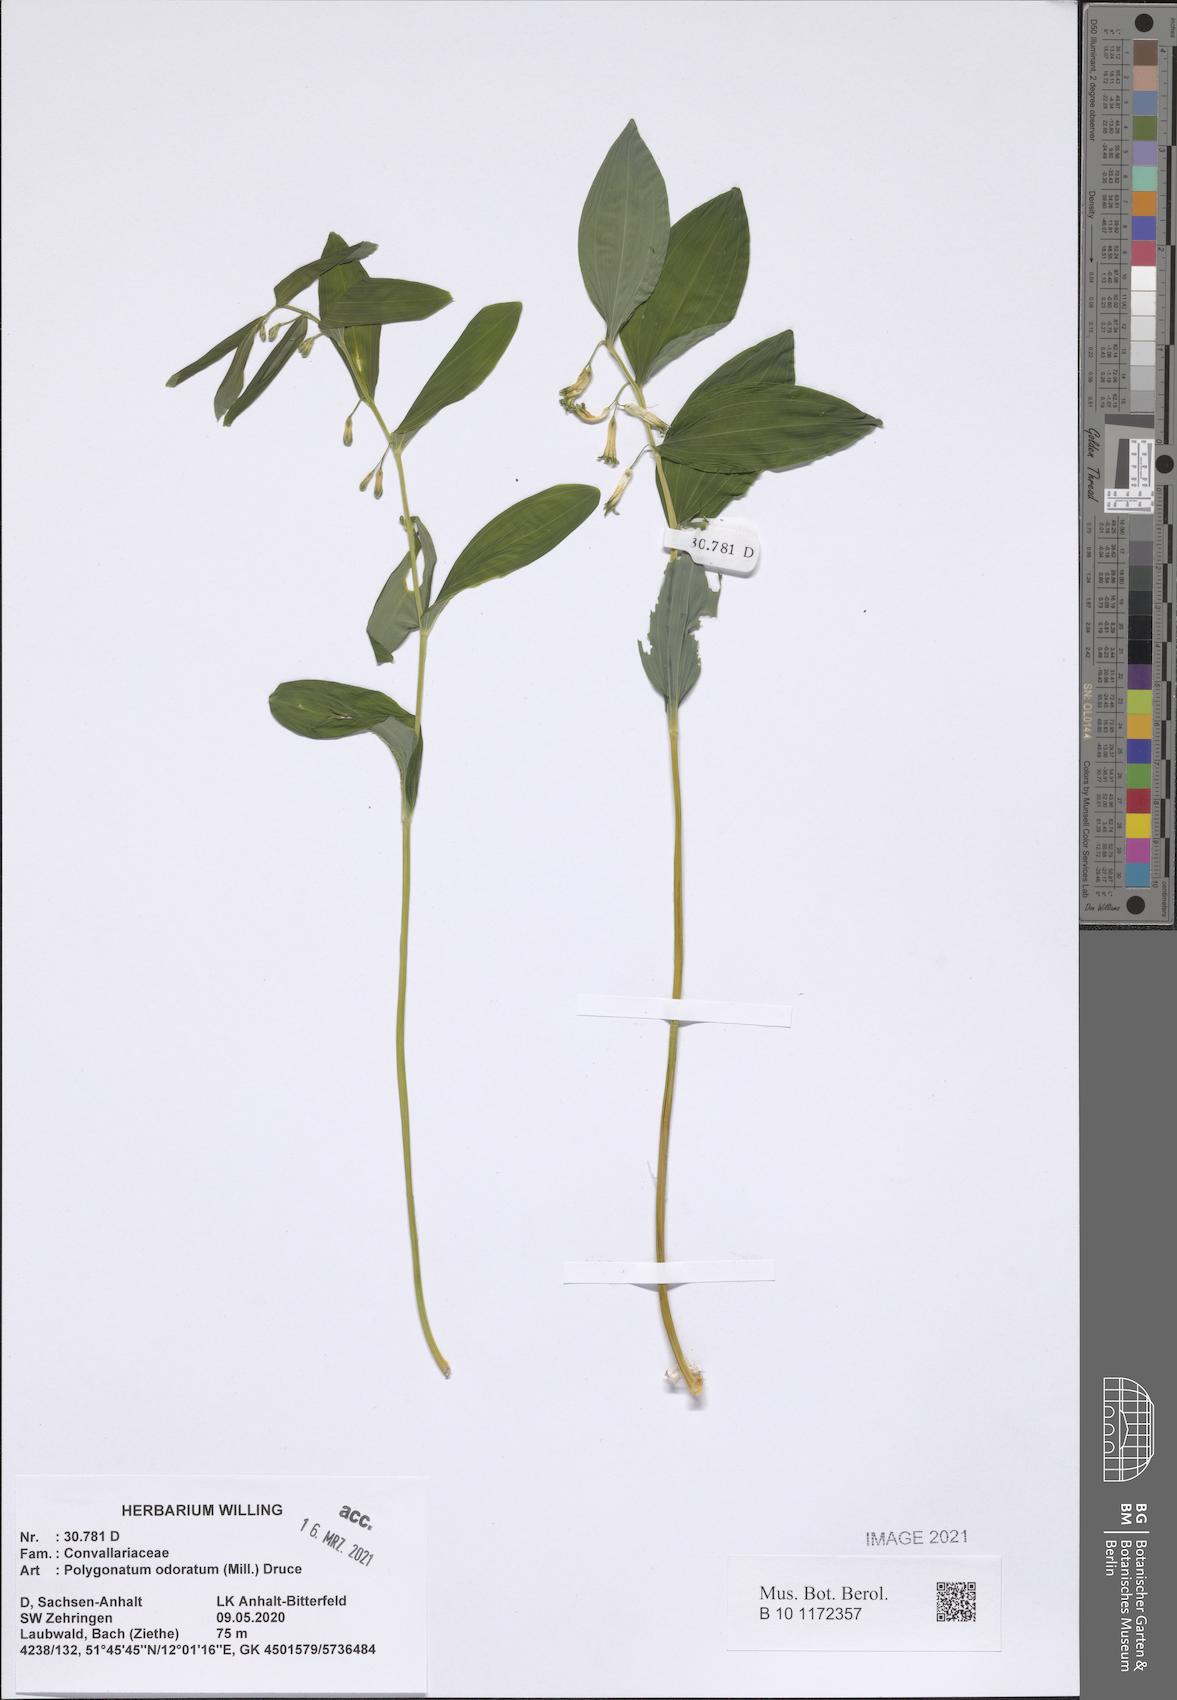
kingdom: Plantae
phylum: Tracheophyta
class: Liliopsida
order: Asparagales
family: Asparagaceae
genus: Polygonatum
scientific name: Polygonatum odoratum
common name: Angular solomon's-seal
